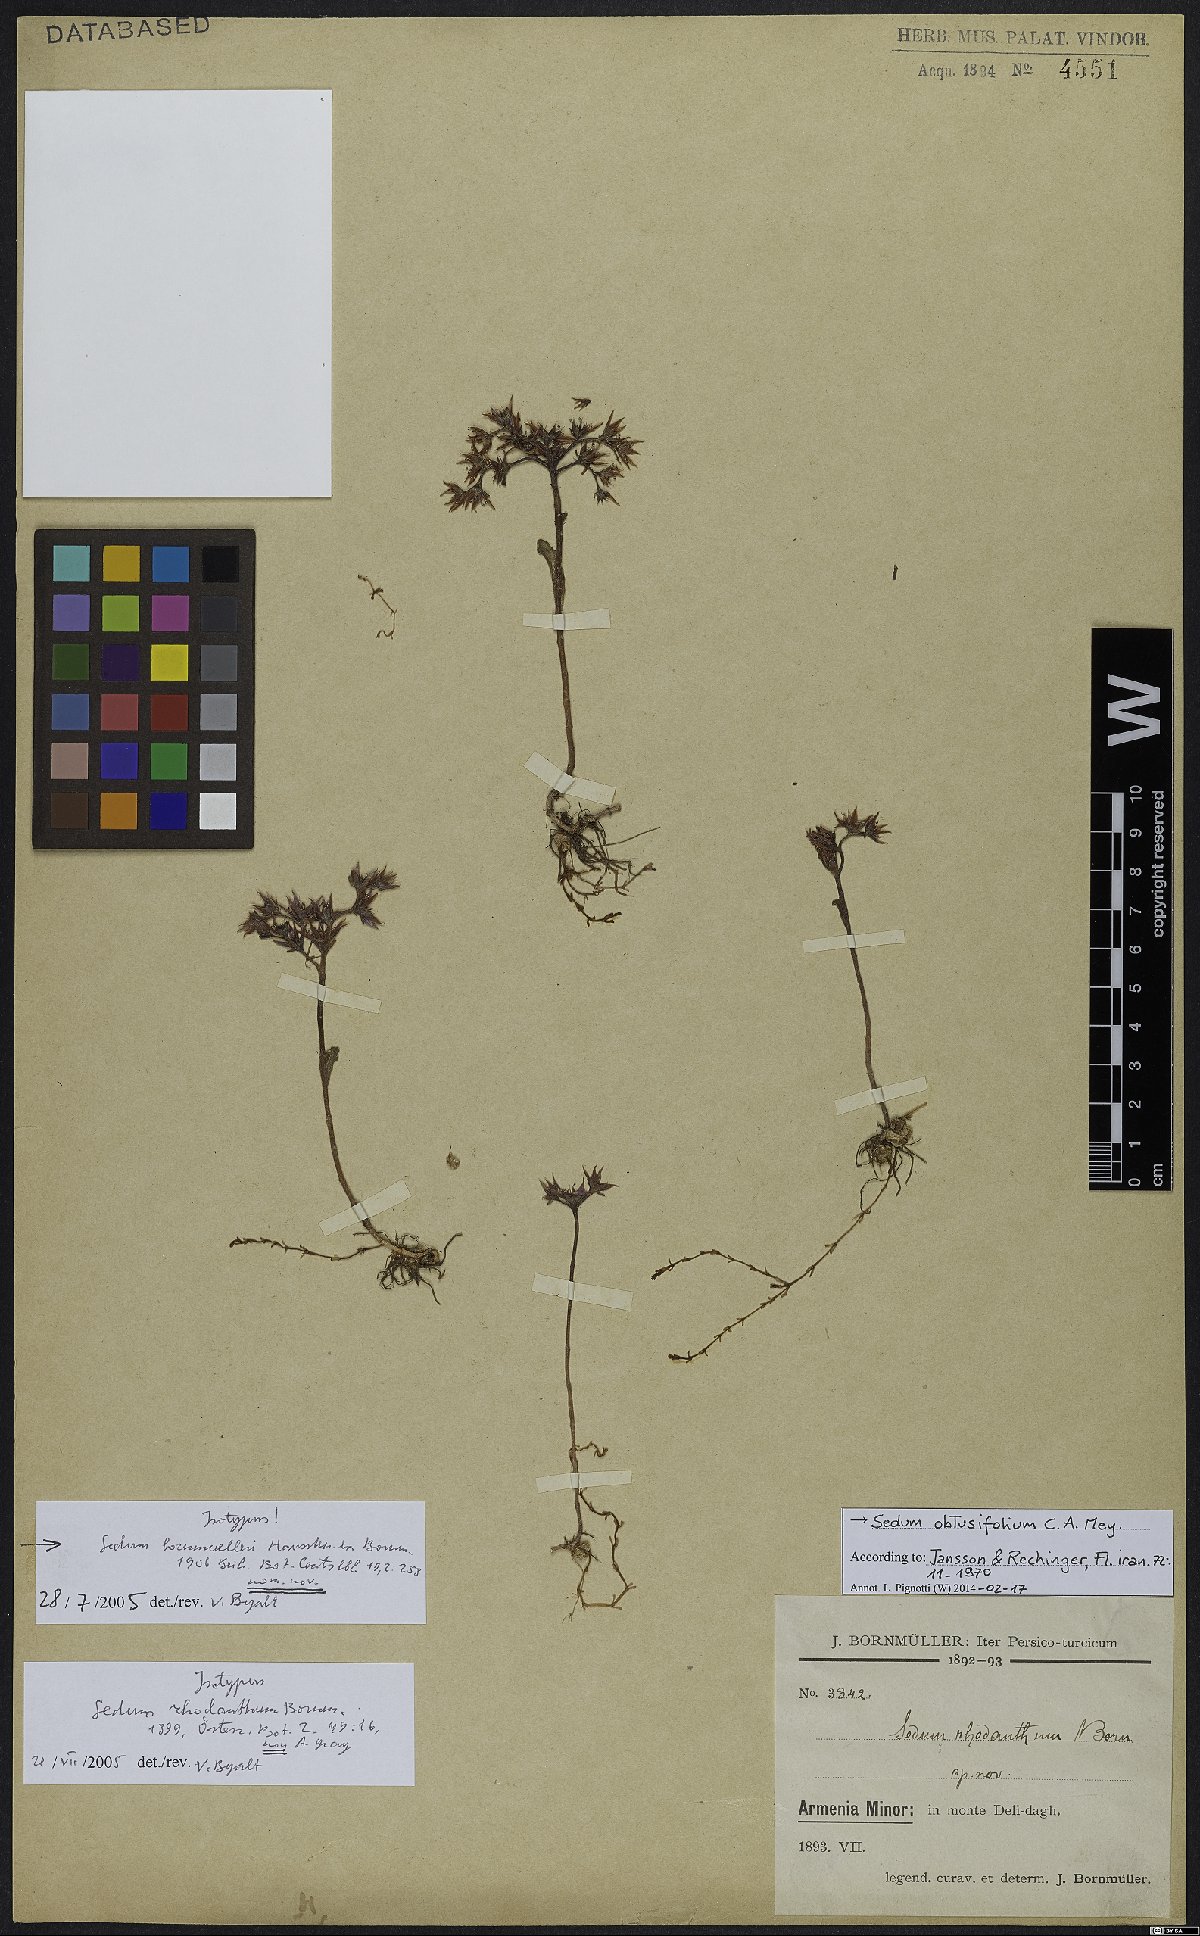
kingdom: Plantae
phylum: Tracheophyta
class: Magnoliopsida
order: Saxifragales
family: Crassulaceae
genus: Phedimus
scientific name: Phedimus obtusifolius
